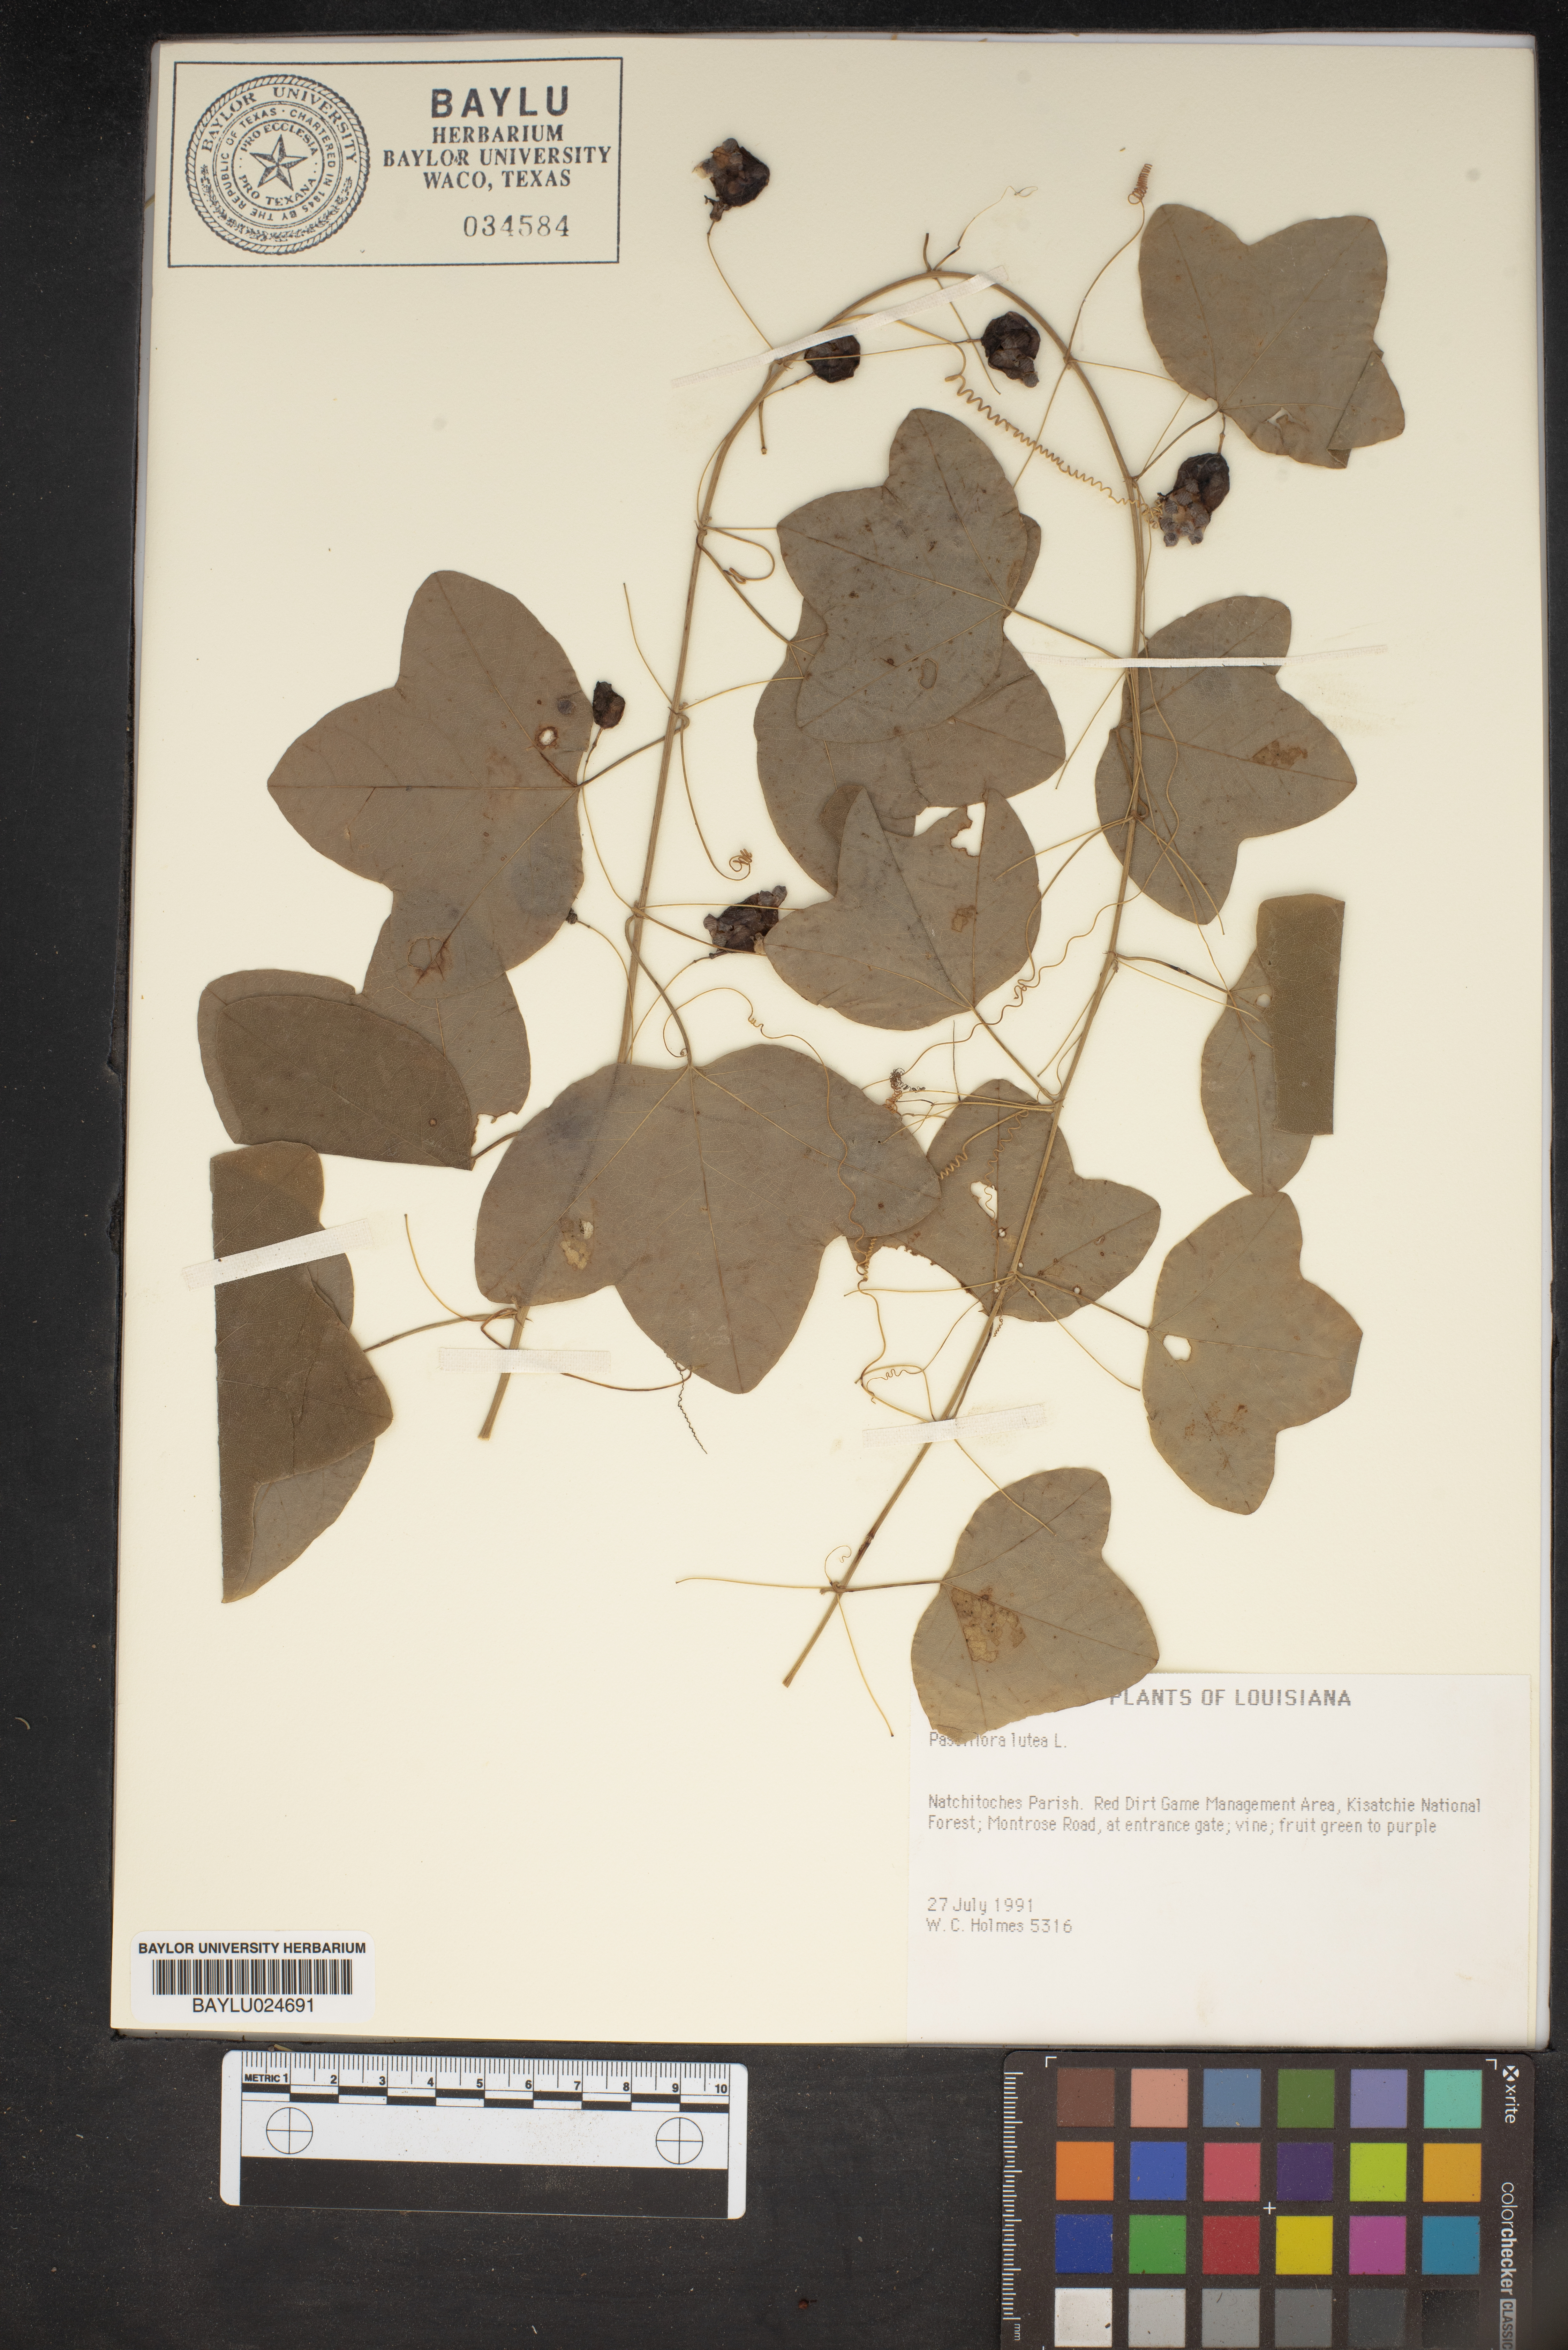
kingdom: Plantae
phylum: Tracheophyta
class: Magnoliopsida
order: Malpighiales
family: Passifloraceae
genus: Passiflora
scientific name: Passiflora lutea
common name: Yellow passionflower
